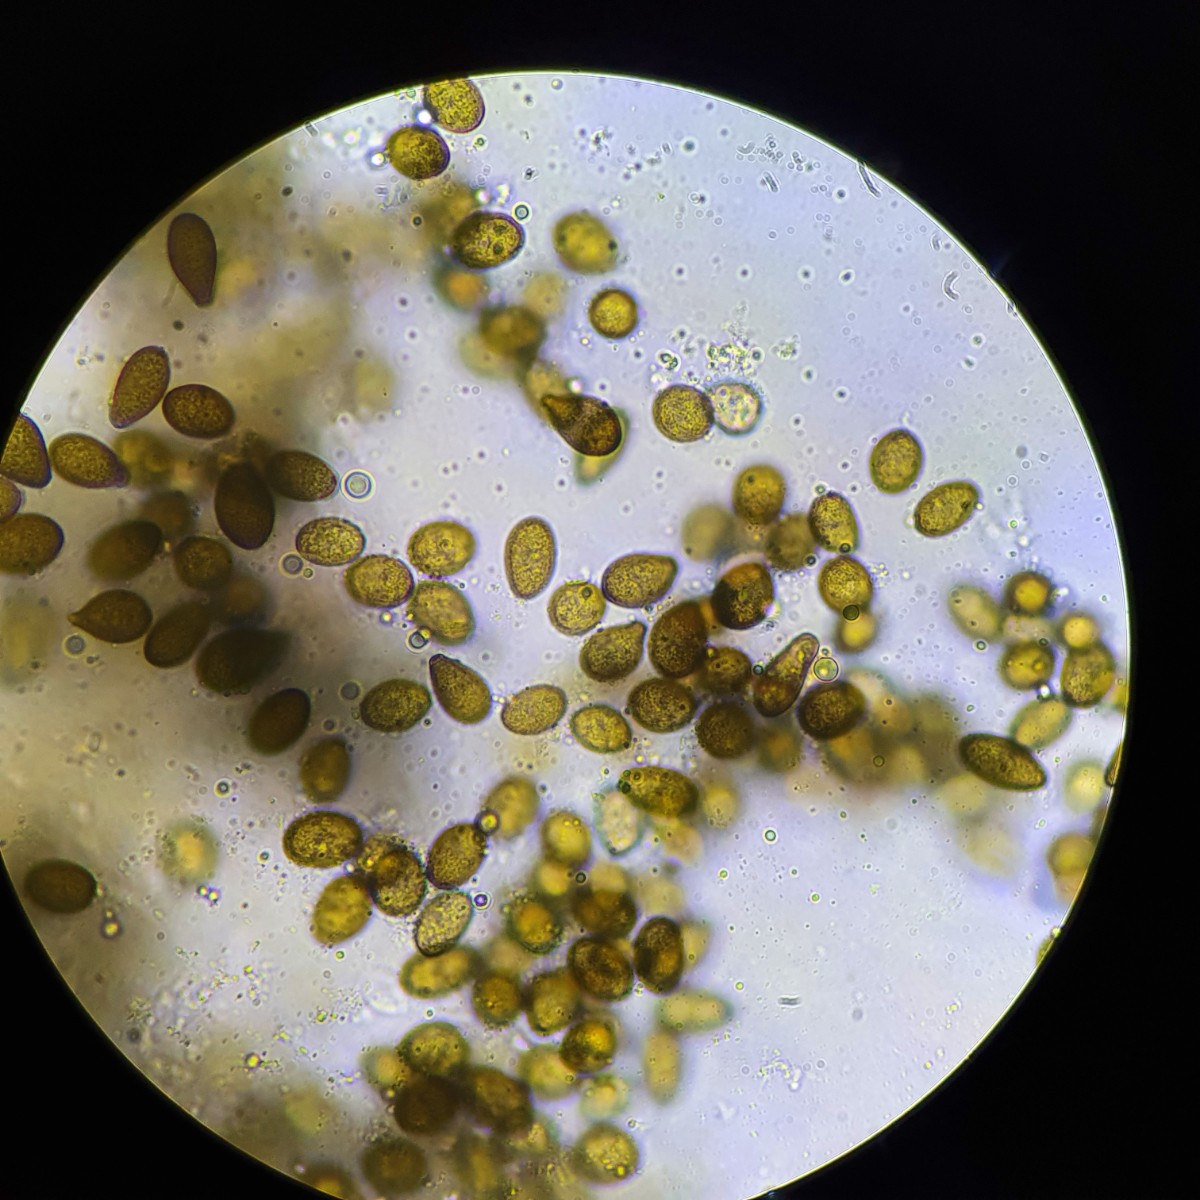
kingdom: Fungi
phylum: Ascomycota
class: Dothideomycetes
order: Botryosphaeriales
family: Botryosphaeriaceae
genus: Diplodia
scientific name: Diplodia crataegi
